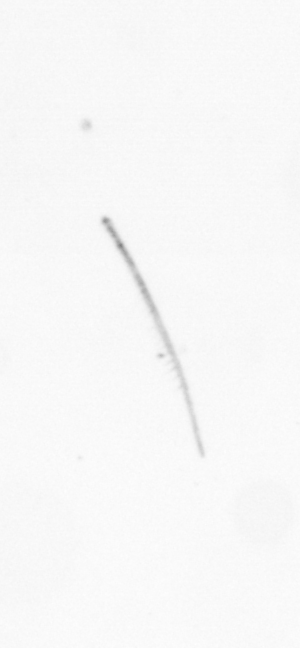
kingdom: Chromista
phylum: Ochrophyta
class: Bacillariophyceae
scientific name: Bacillariophyceae
